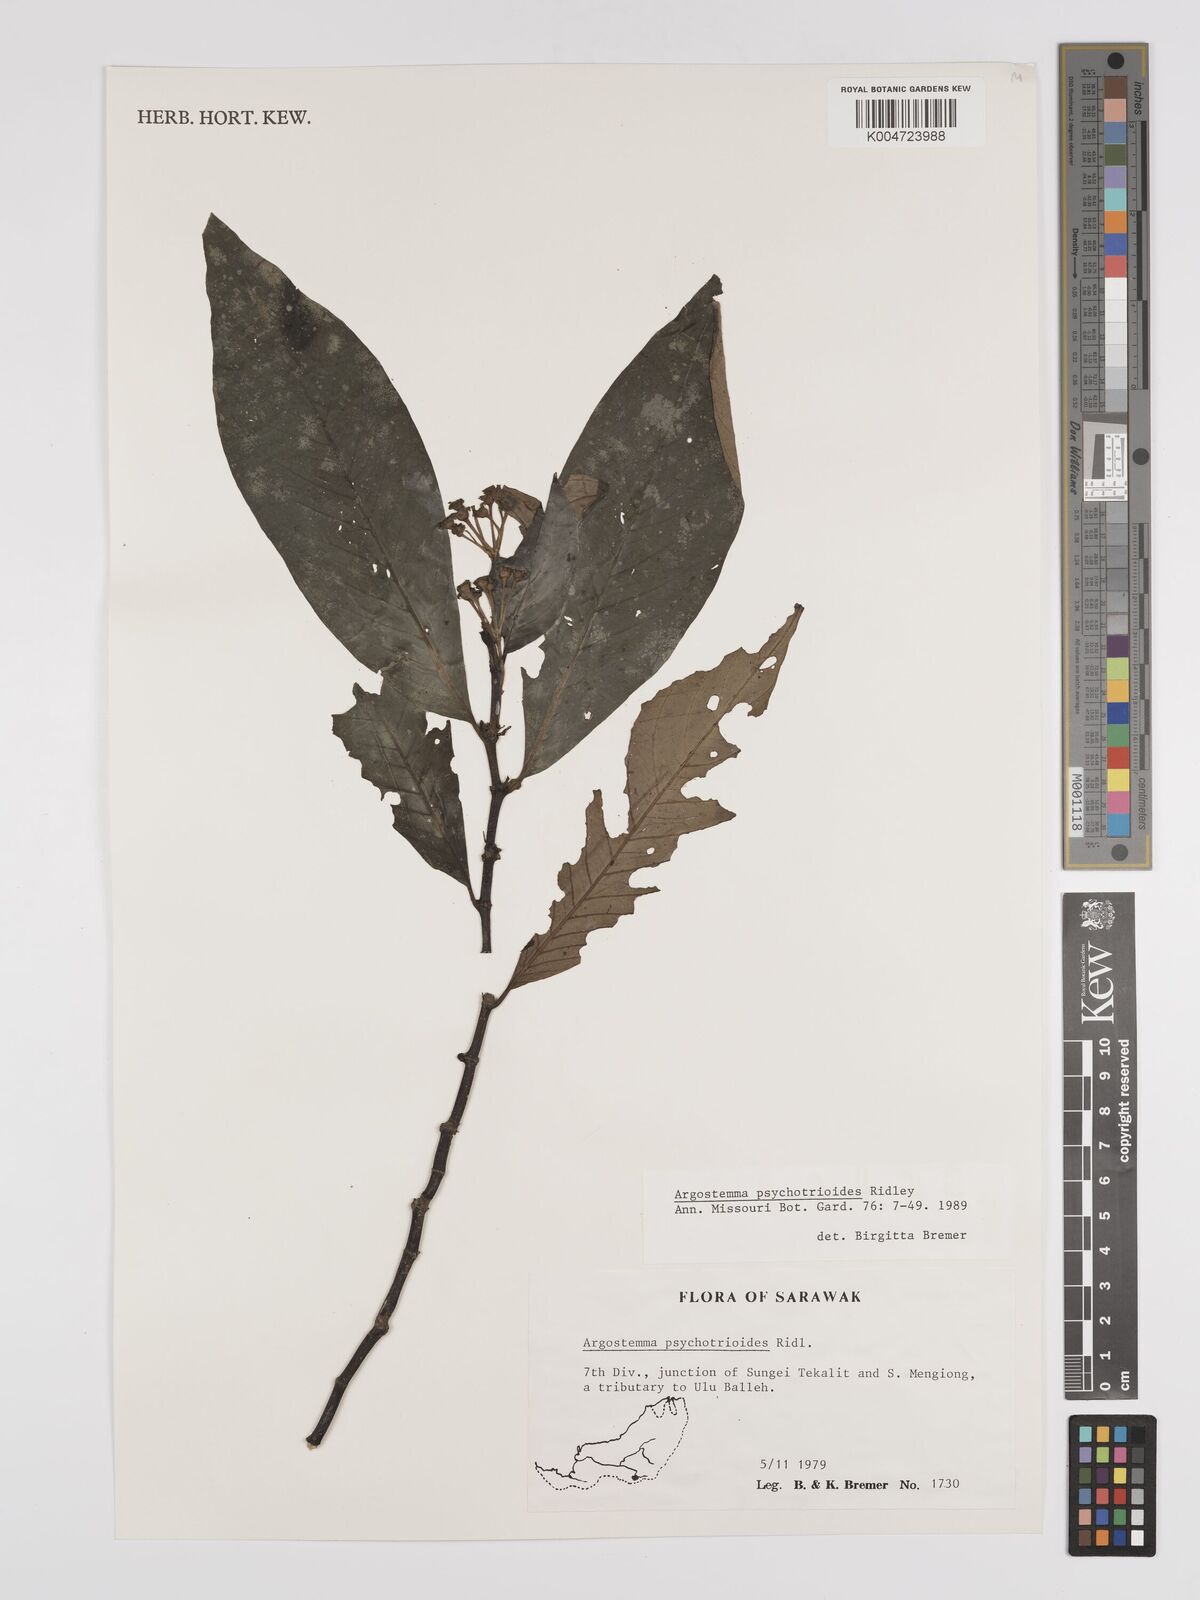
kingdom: Plantae
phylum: Tracheophyta
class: Magnoliopsida
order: Gentianales
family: Rubiaceae
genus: Argostemma
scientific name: Argostemma psychotrioides
